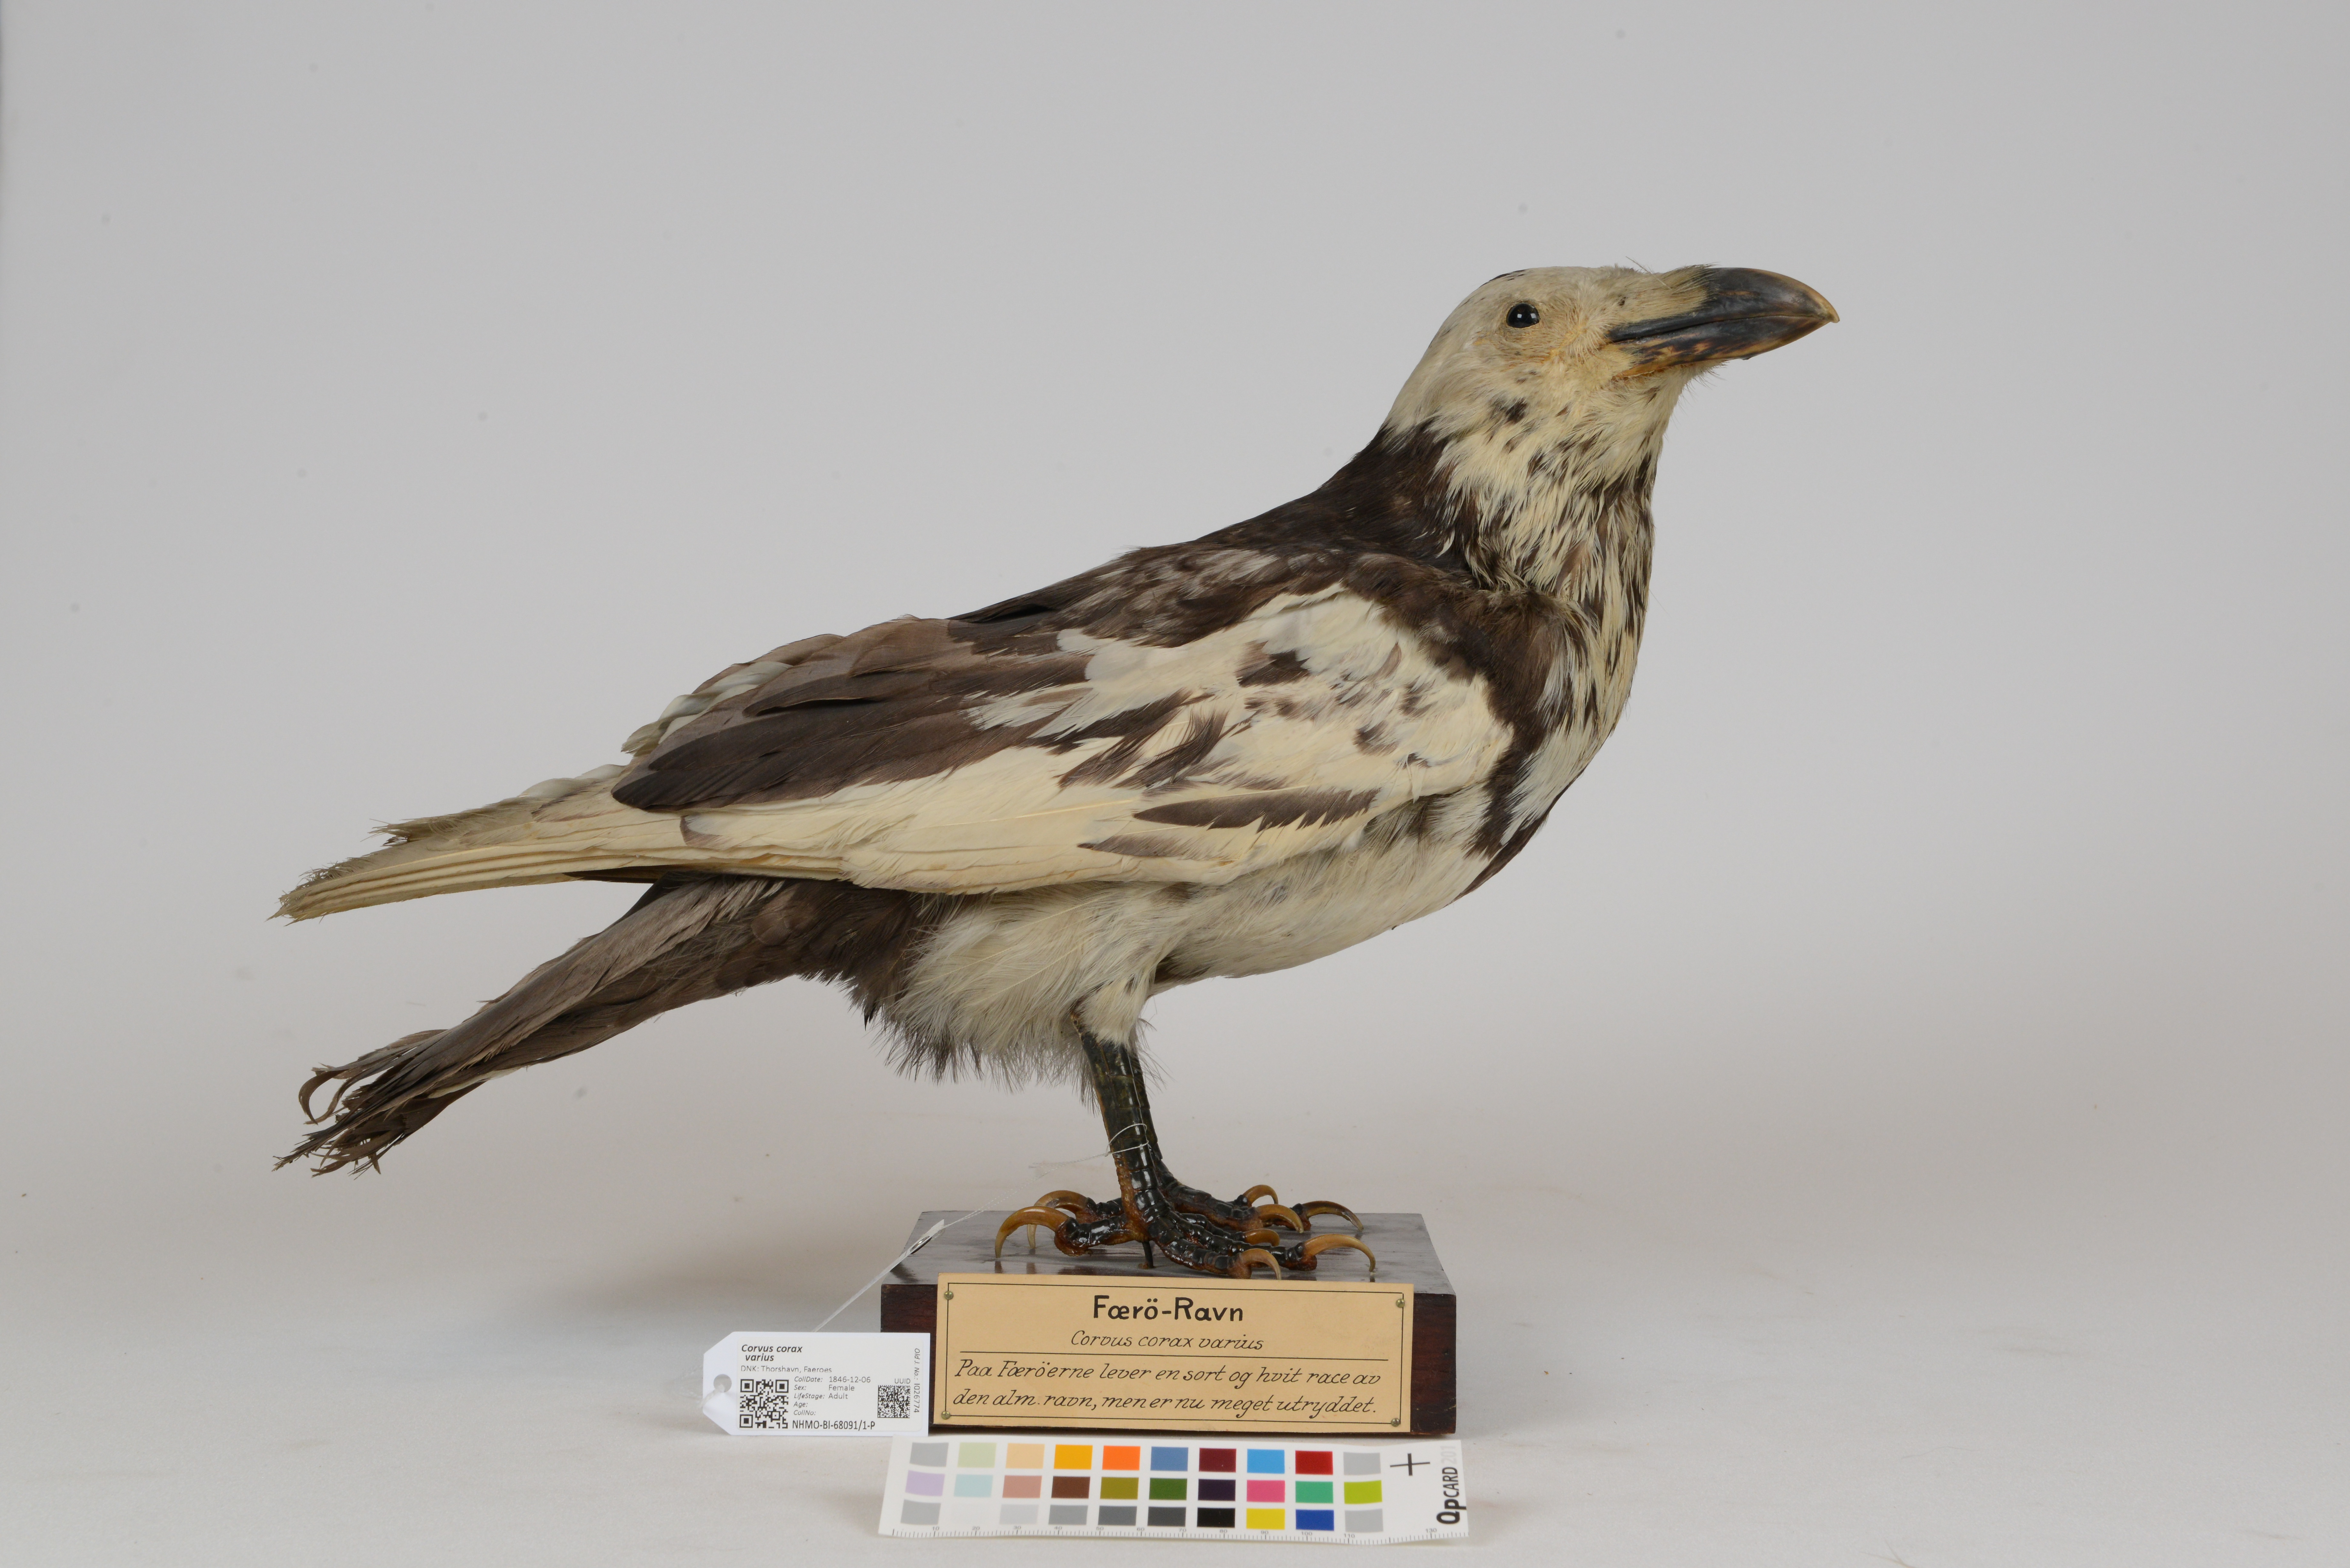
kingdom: Animalia
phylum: Chordata
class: Aves
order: Passeriformes
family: Corvidae
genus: Corvus
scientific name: Corvus corax
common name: Common raven
